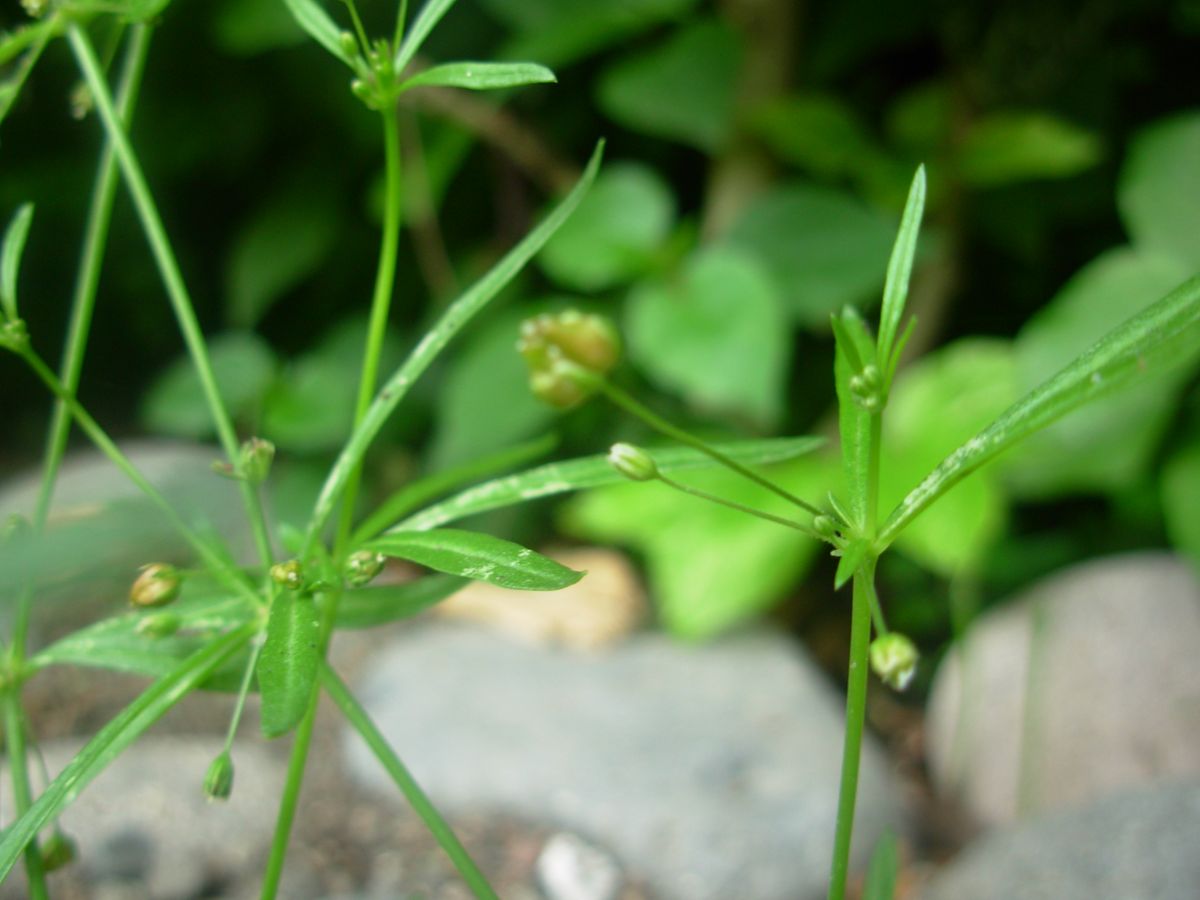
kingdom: Plantae
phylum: Tracheophyta
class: Magnoliopsida
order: Caryophyllales
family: Molluginaceae
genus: Mollugo
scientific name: Mollugo verticillata
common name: Green carpetweed
